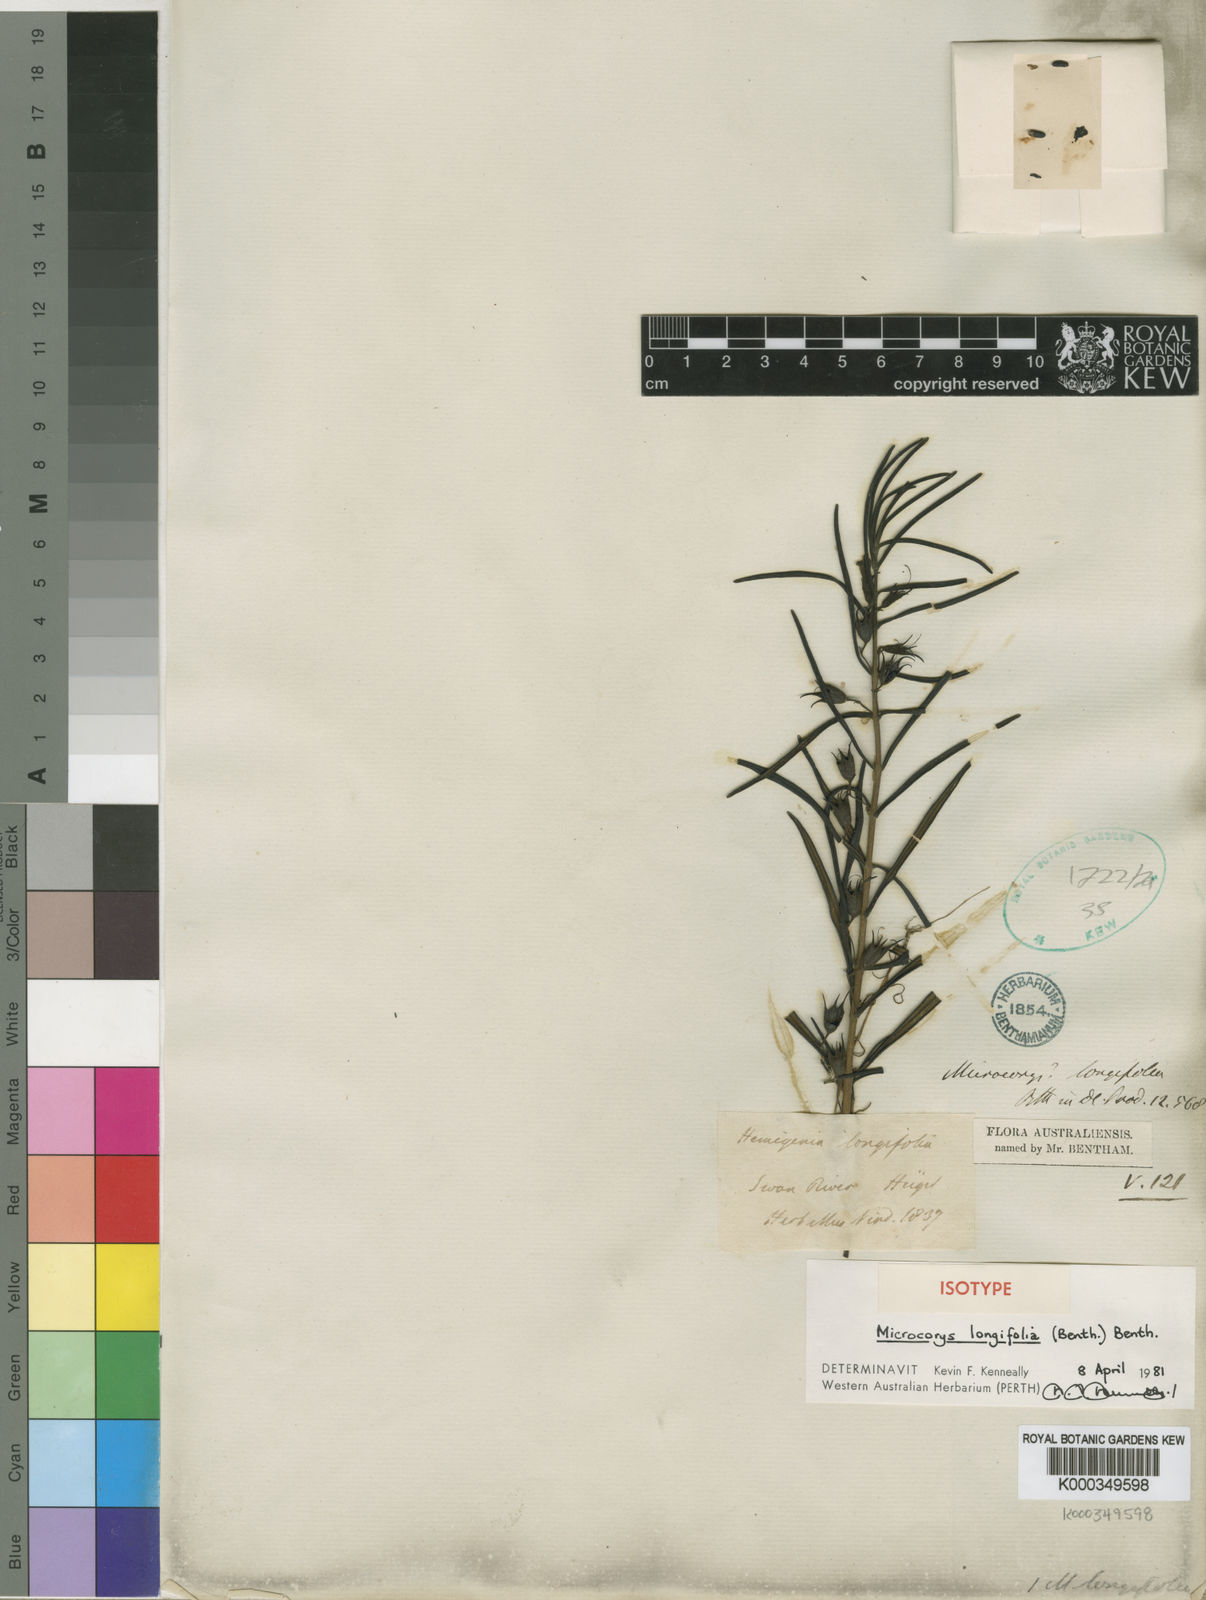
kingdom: Plantae
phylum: Tracheophyta
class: Magnoliopsida
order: Lamiales
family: Lamiaceae
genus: Microcorys
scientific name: Microcorys longifolia
